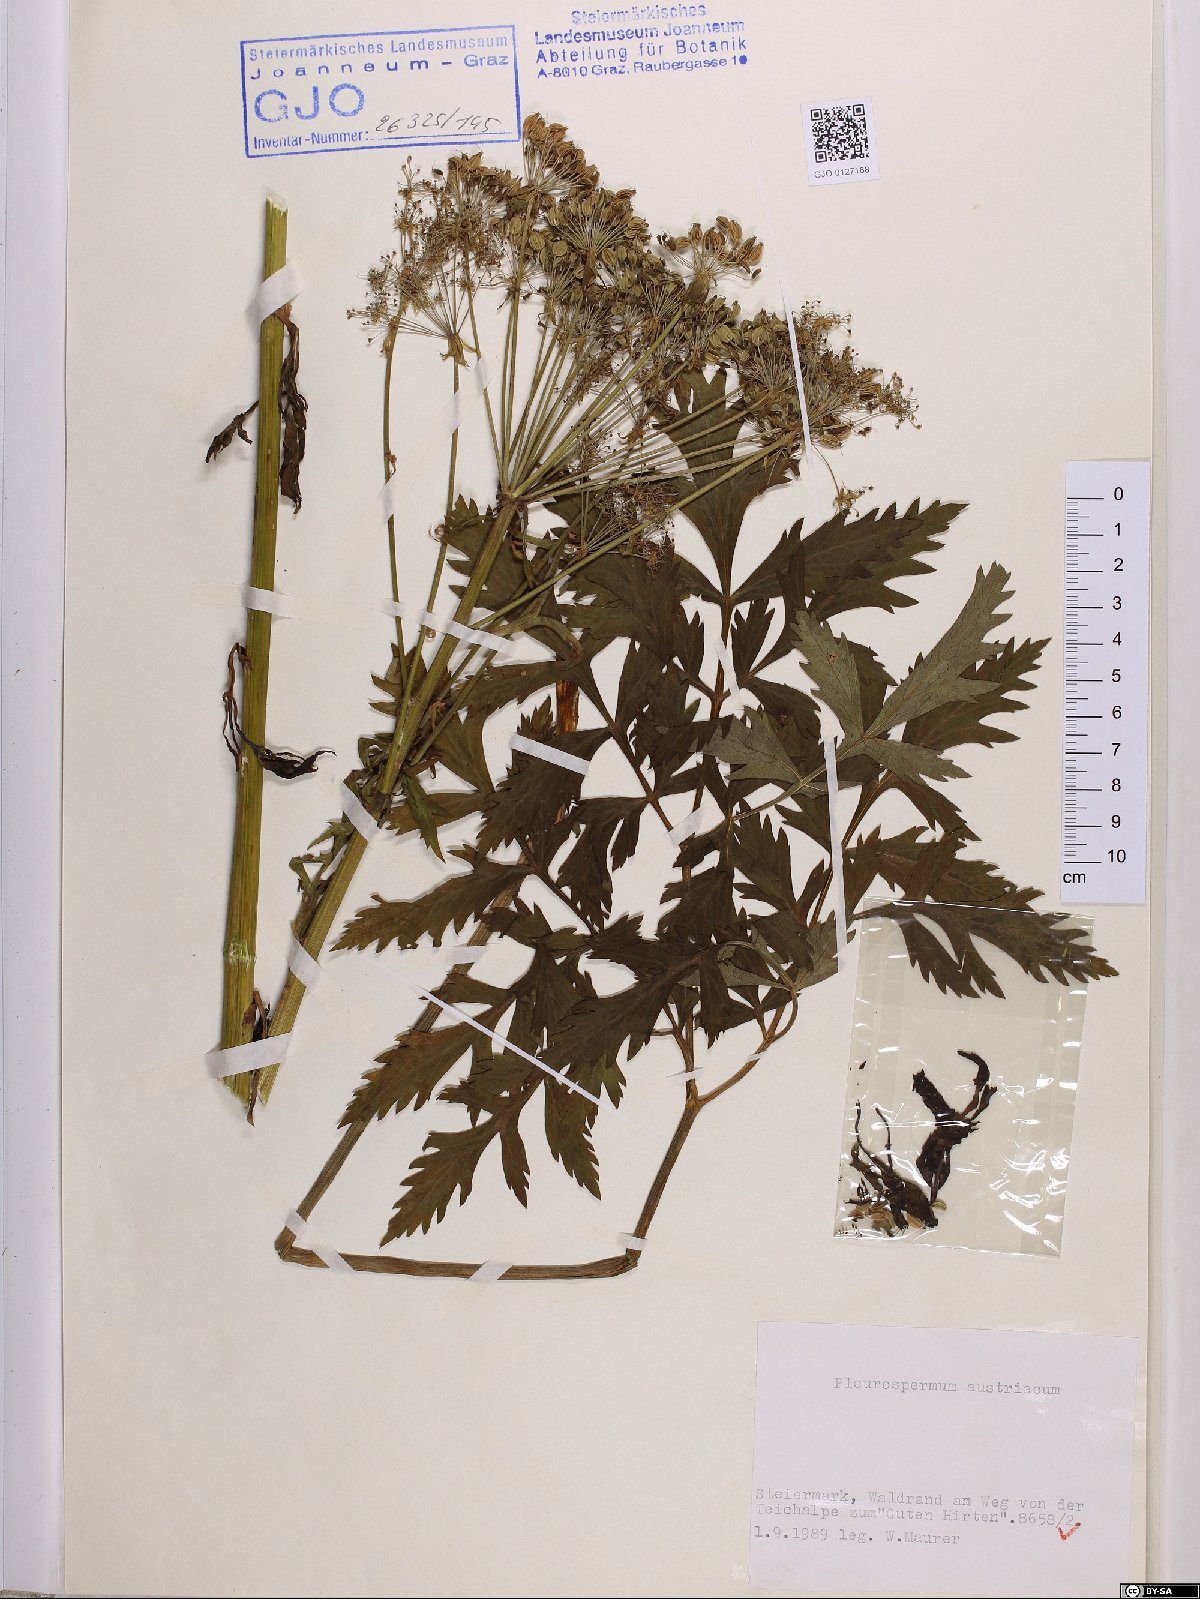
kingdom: Plantae
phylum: Tracheophyta
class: Magnoliopsida
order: Apiales
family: Apiaceae
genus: Pleurospermum
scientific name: Pleurospermum austriacum
